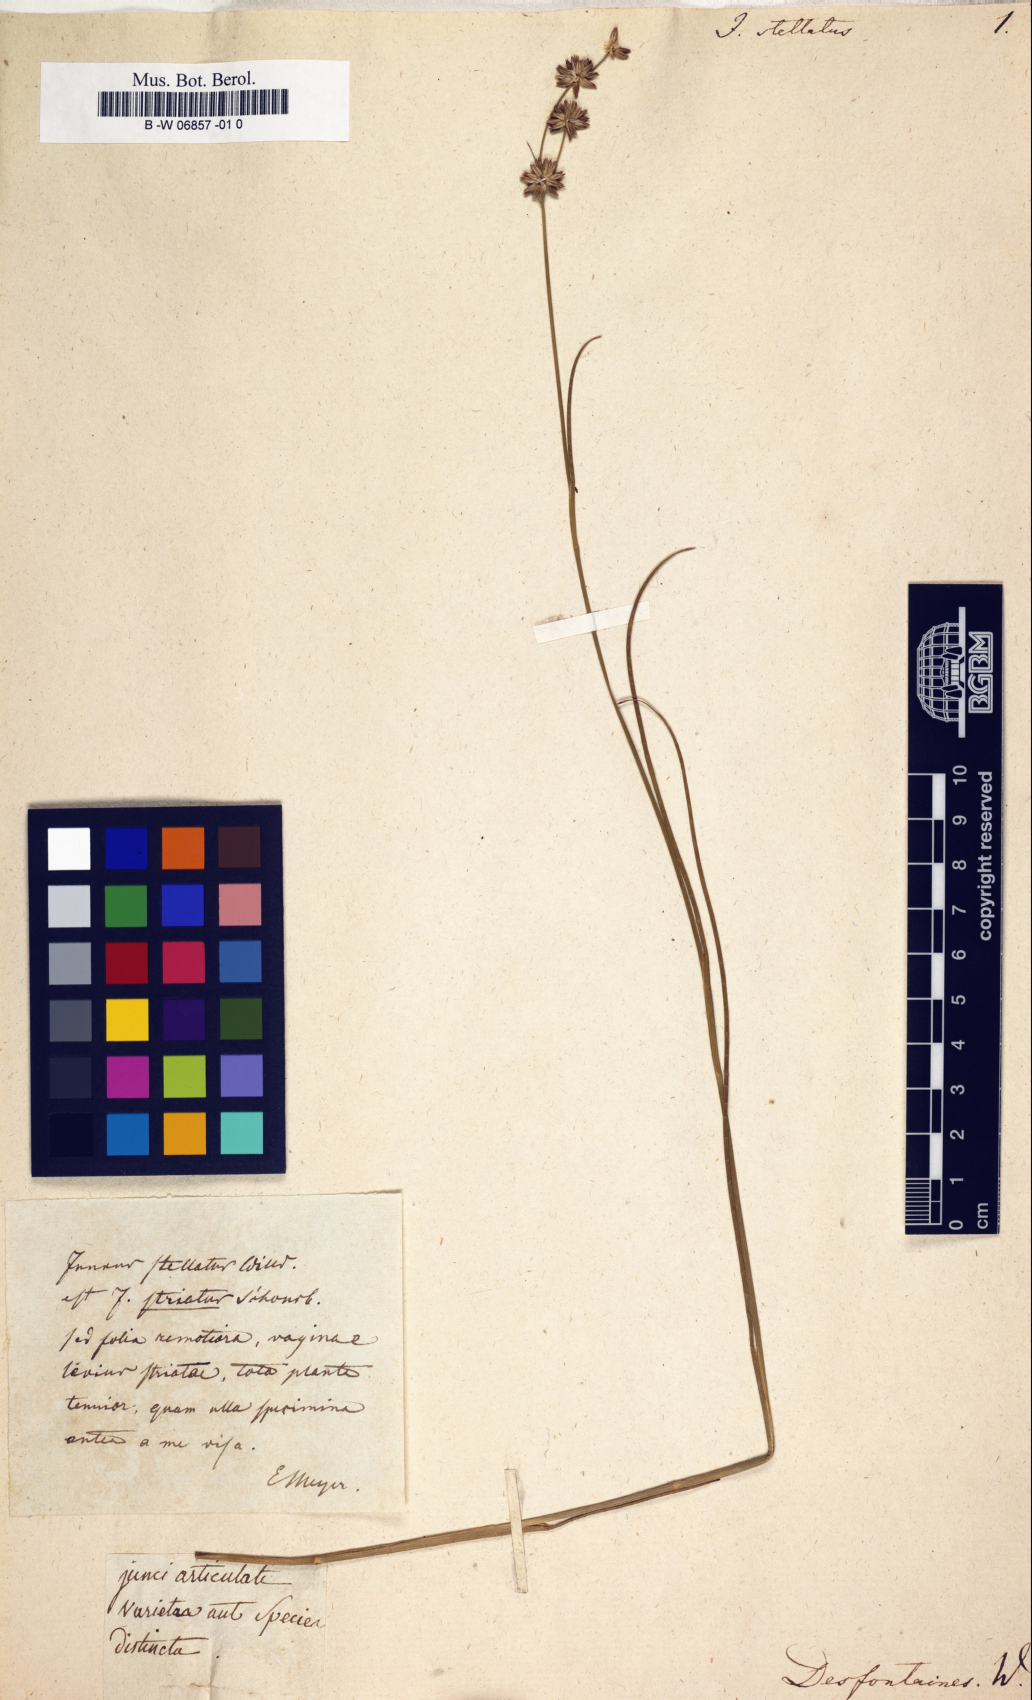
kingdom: Plantae
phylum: Tracheophyta
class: Liliopsida
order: Poales
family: Juncaceae
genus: Juncus
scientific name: Juncus fontanesii
